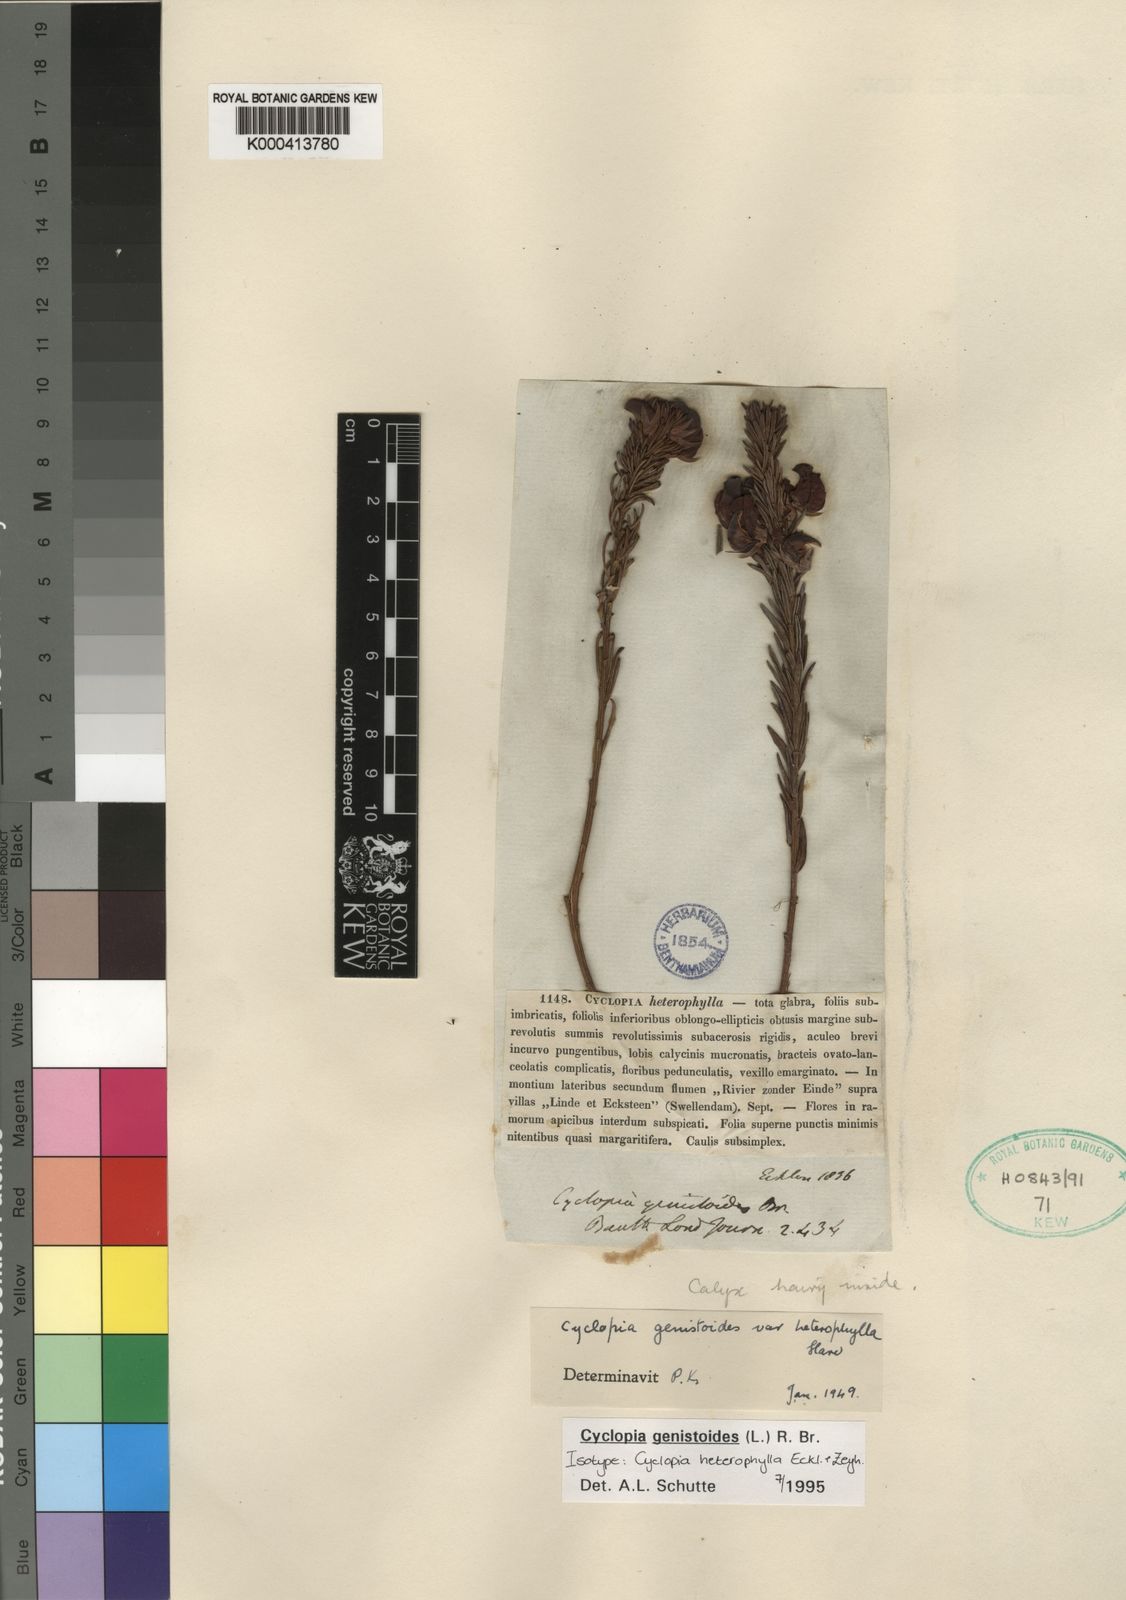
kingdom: Plantae
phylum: Tracheophyta
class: Magnoliopsida
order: Fabales
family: Fabaceae
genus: Cyclopia
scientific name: Cyclopia genistoides
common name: Honeybush tea
